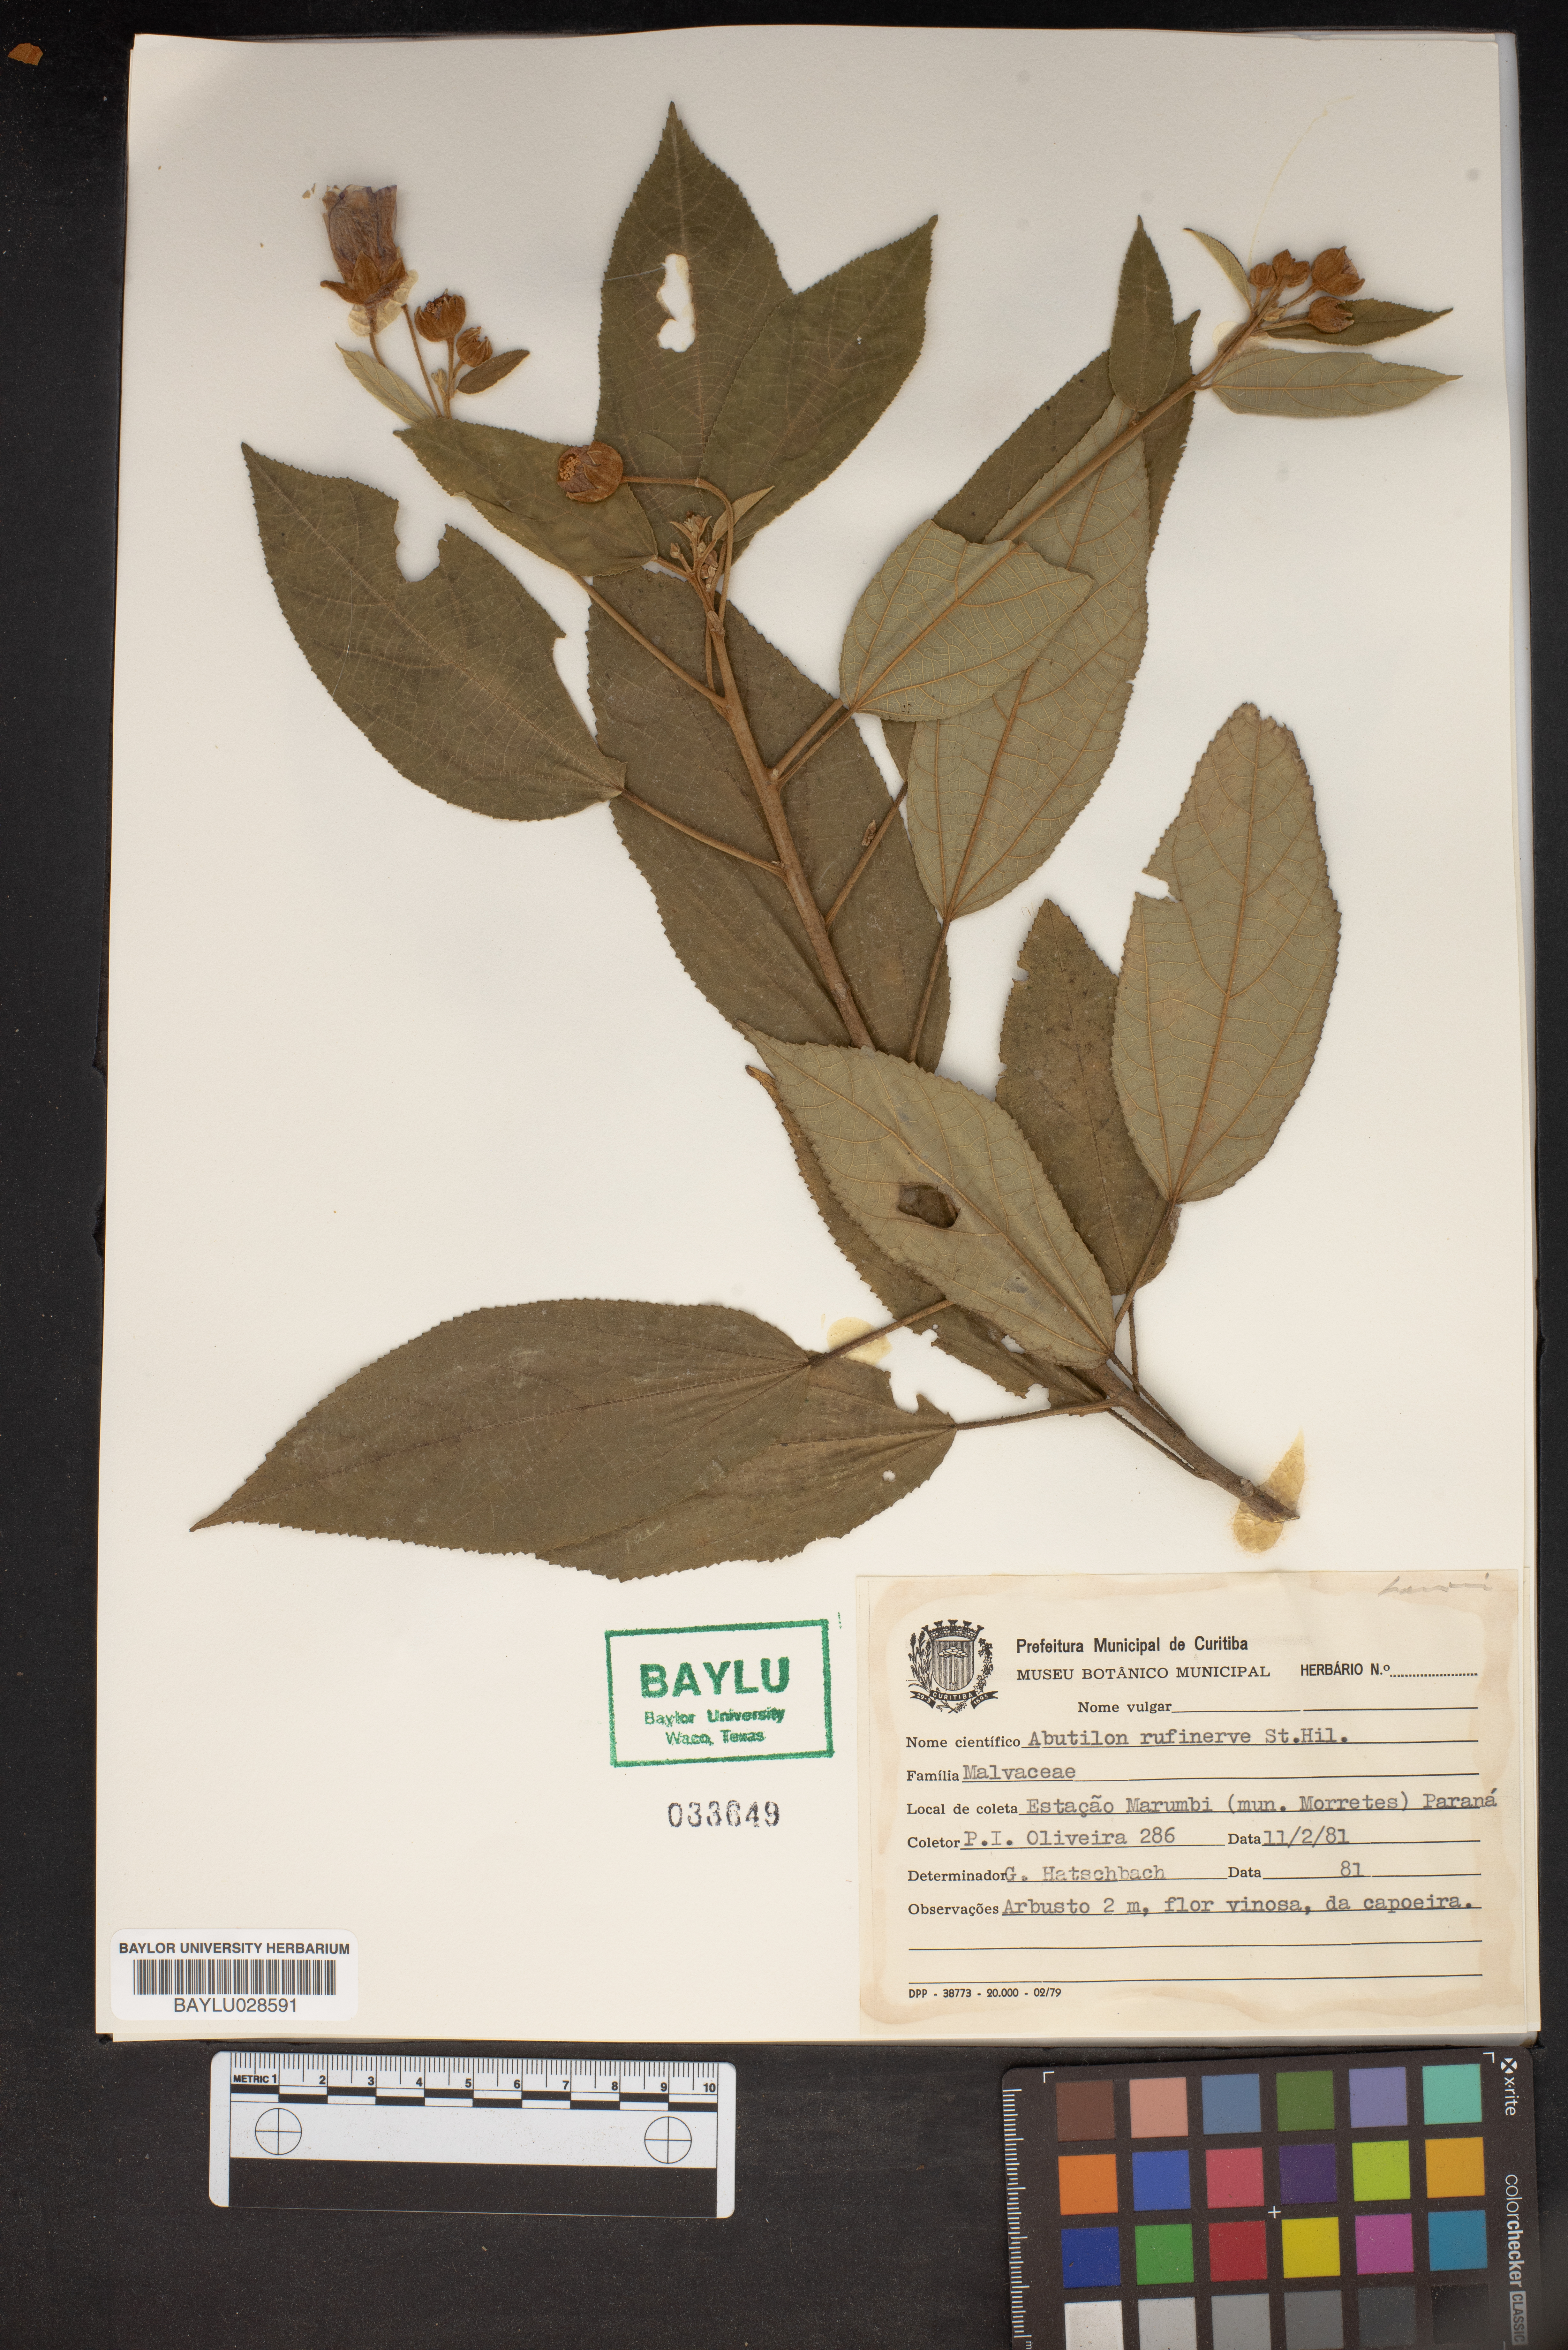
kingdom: Plantae
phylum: Tracheophyta
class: Magnoliopsida
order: Malvales
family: Malvaceae
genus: Pseudabutilon
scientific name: Pseudabutilon cymosum
